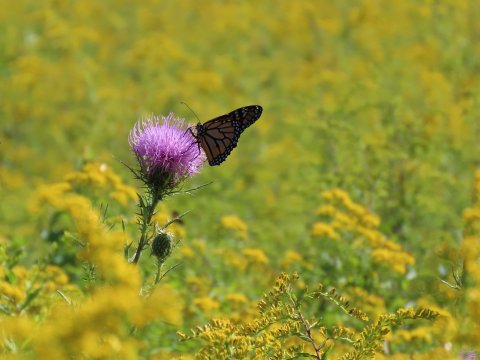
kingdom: Animalia
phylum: Arthropoda
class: Insecta
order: Lepidoptera
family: Nymphalidae
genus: Danaus
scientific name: Danaus plexippus
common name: Monarch
